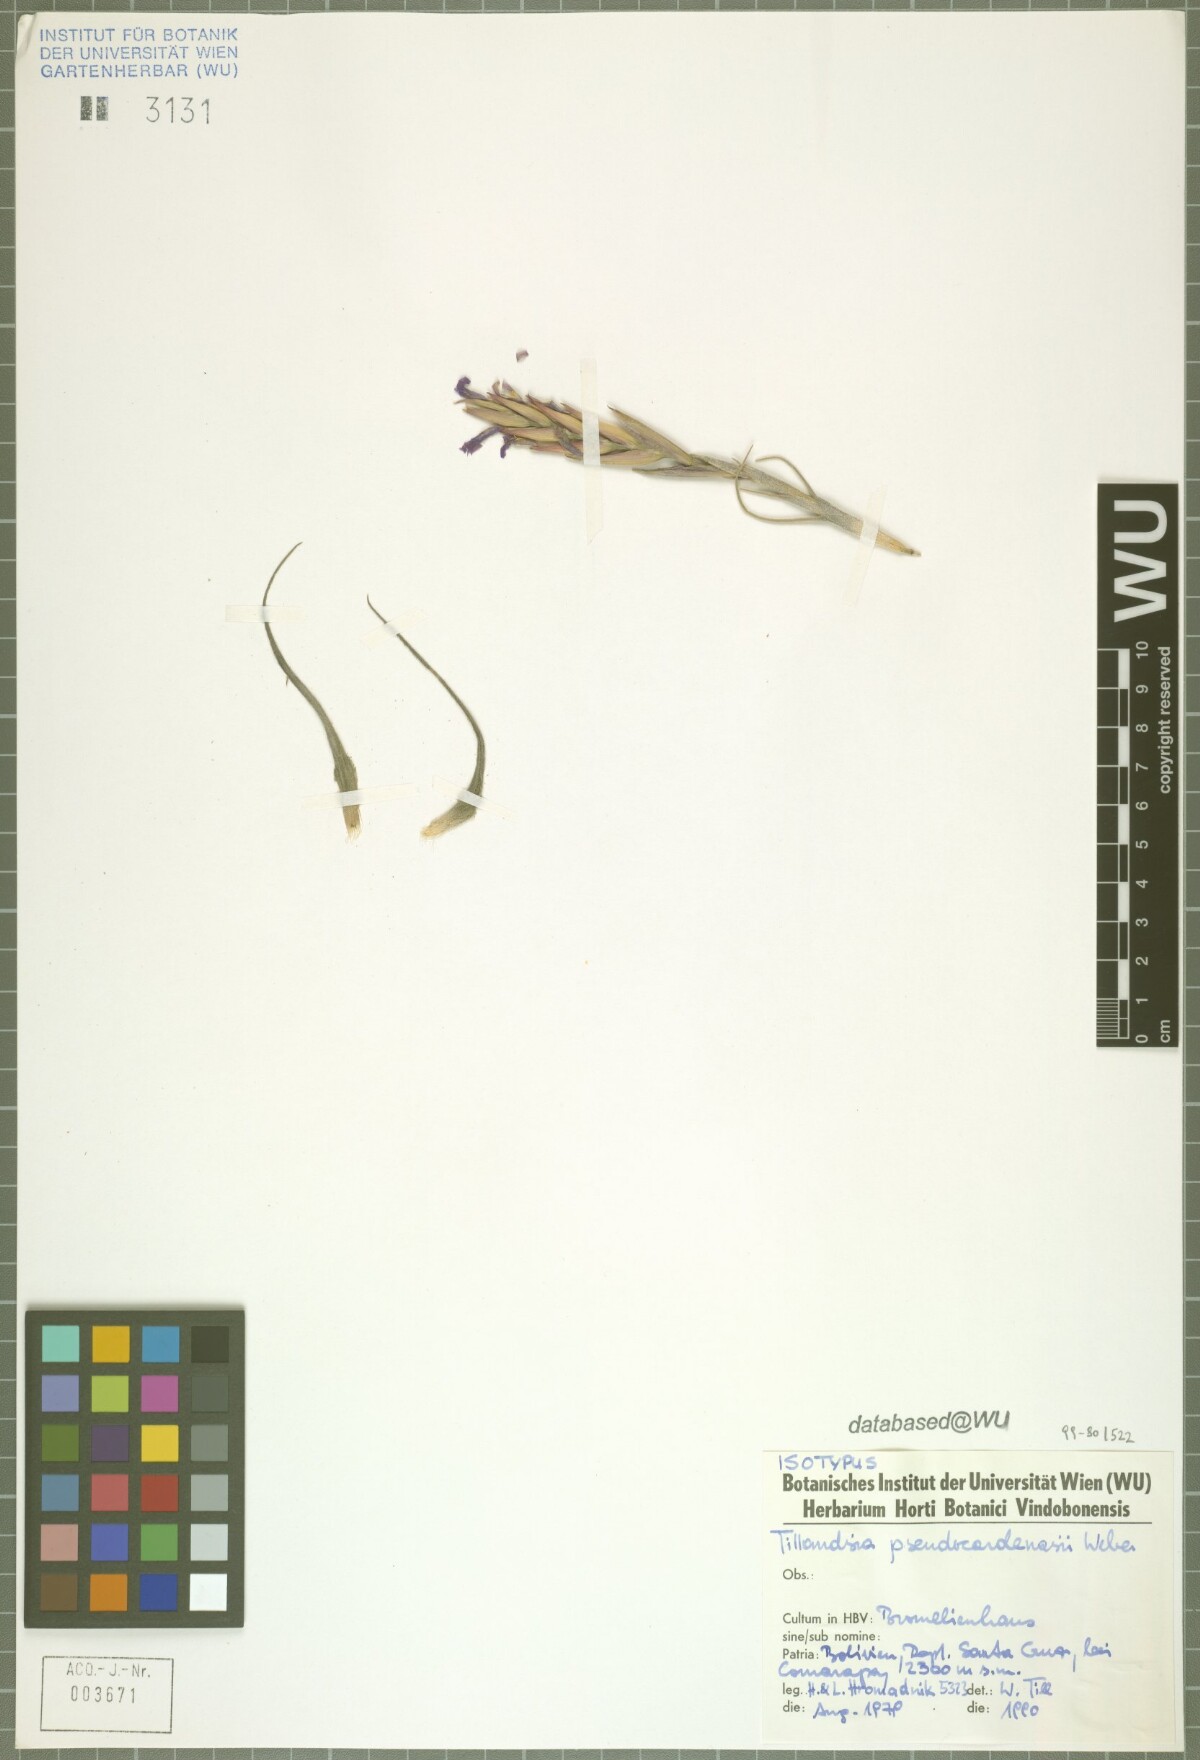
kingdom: Plantae
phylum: Tracheophyta
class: Liliopsida
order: Poales
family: Bromeliaceae
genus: Tillandsia
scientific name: Tillandsia pseudocardenasii
